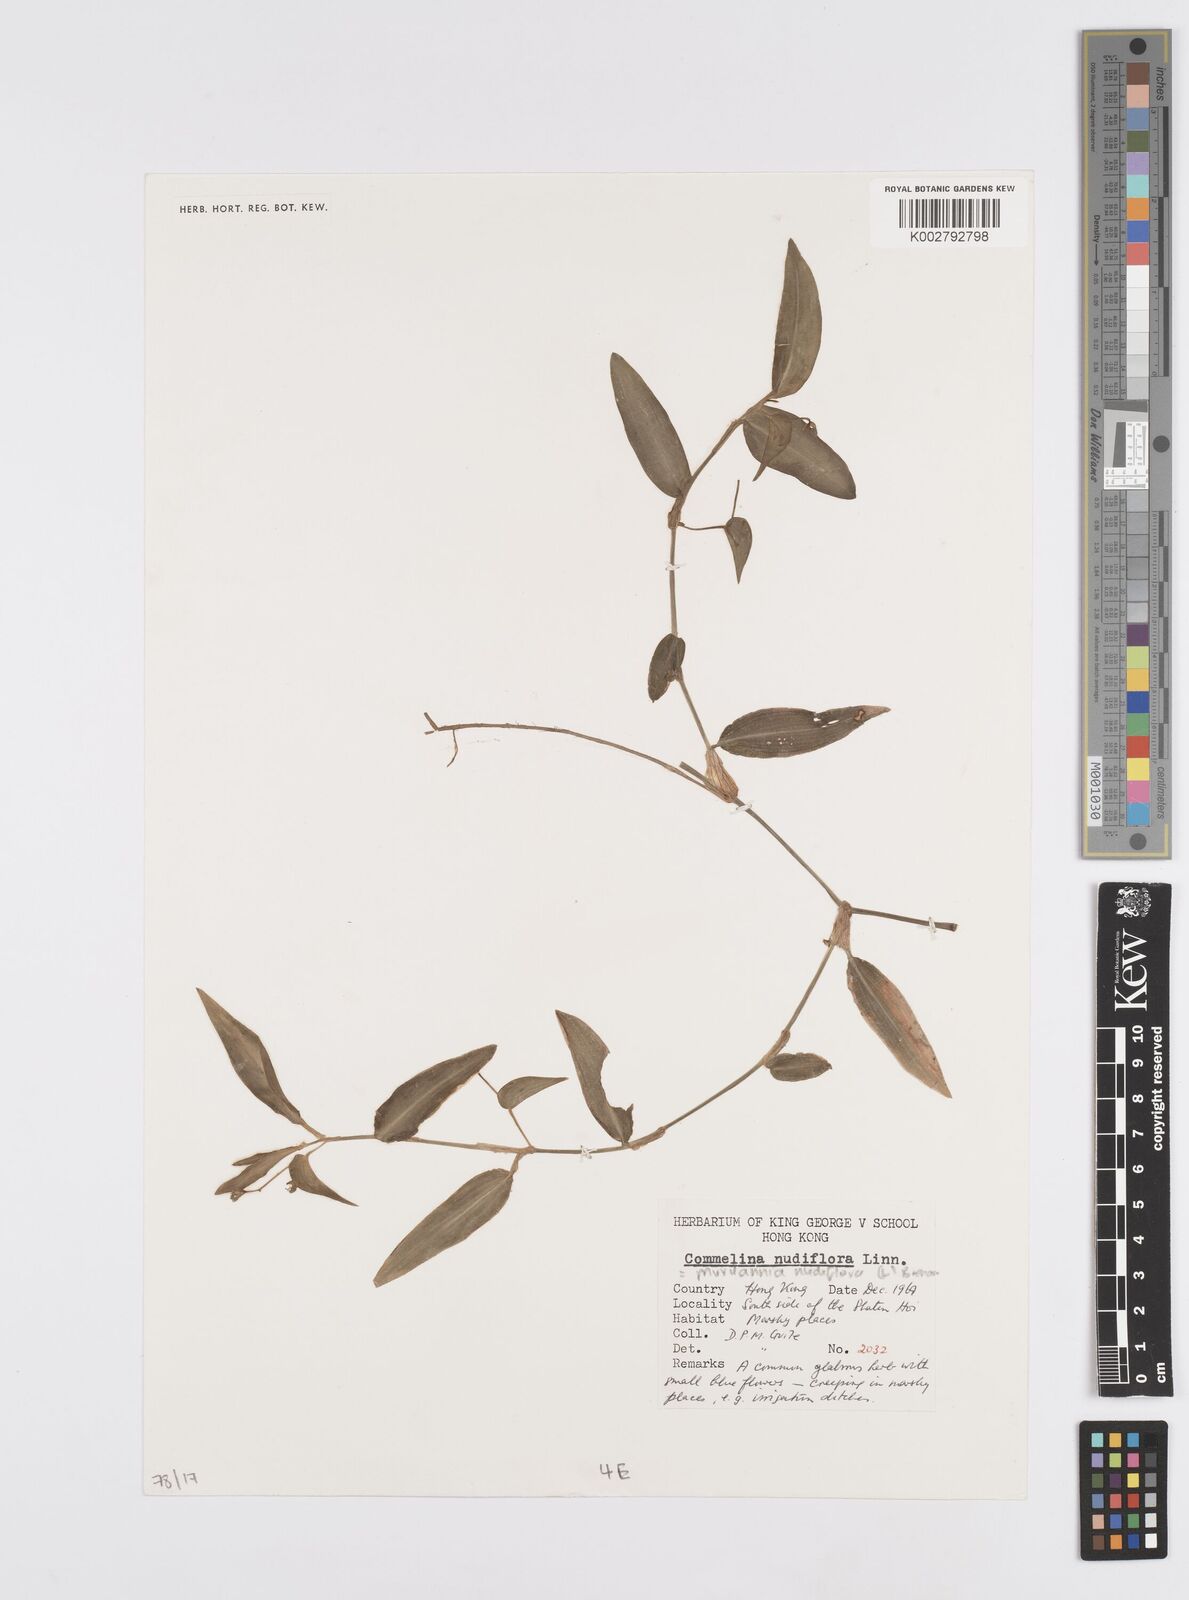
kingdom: Plantae
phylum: Tracheophyta
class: Liliopsida
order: Commelinales
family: Commelinaceae
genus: Murdannia
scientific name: Murdannia nudiflora
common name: Nakedstem dewflower
